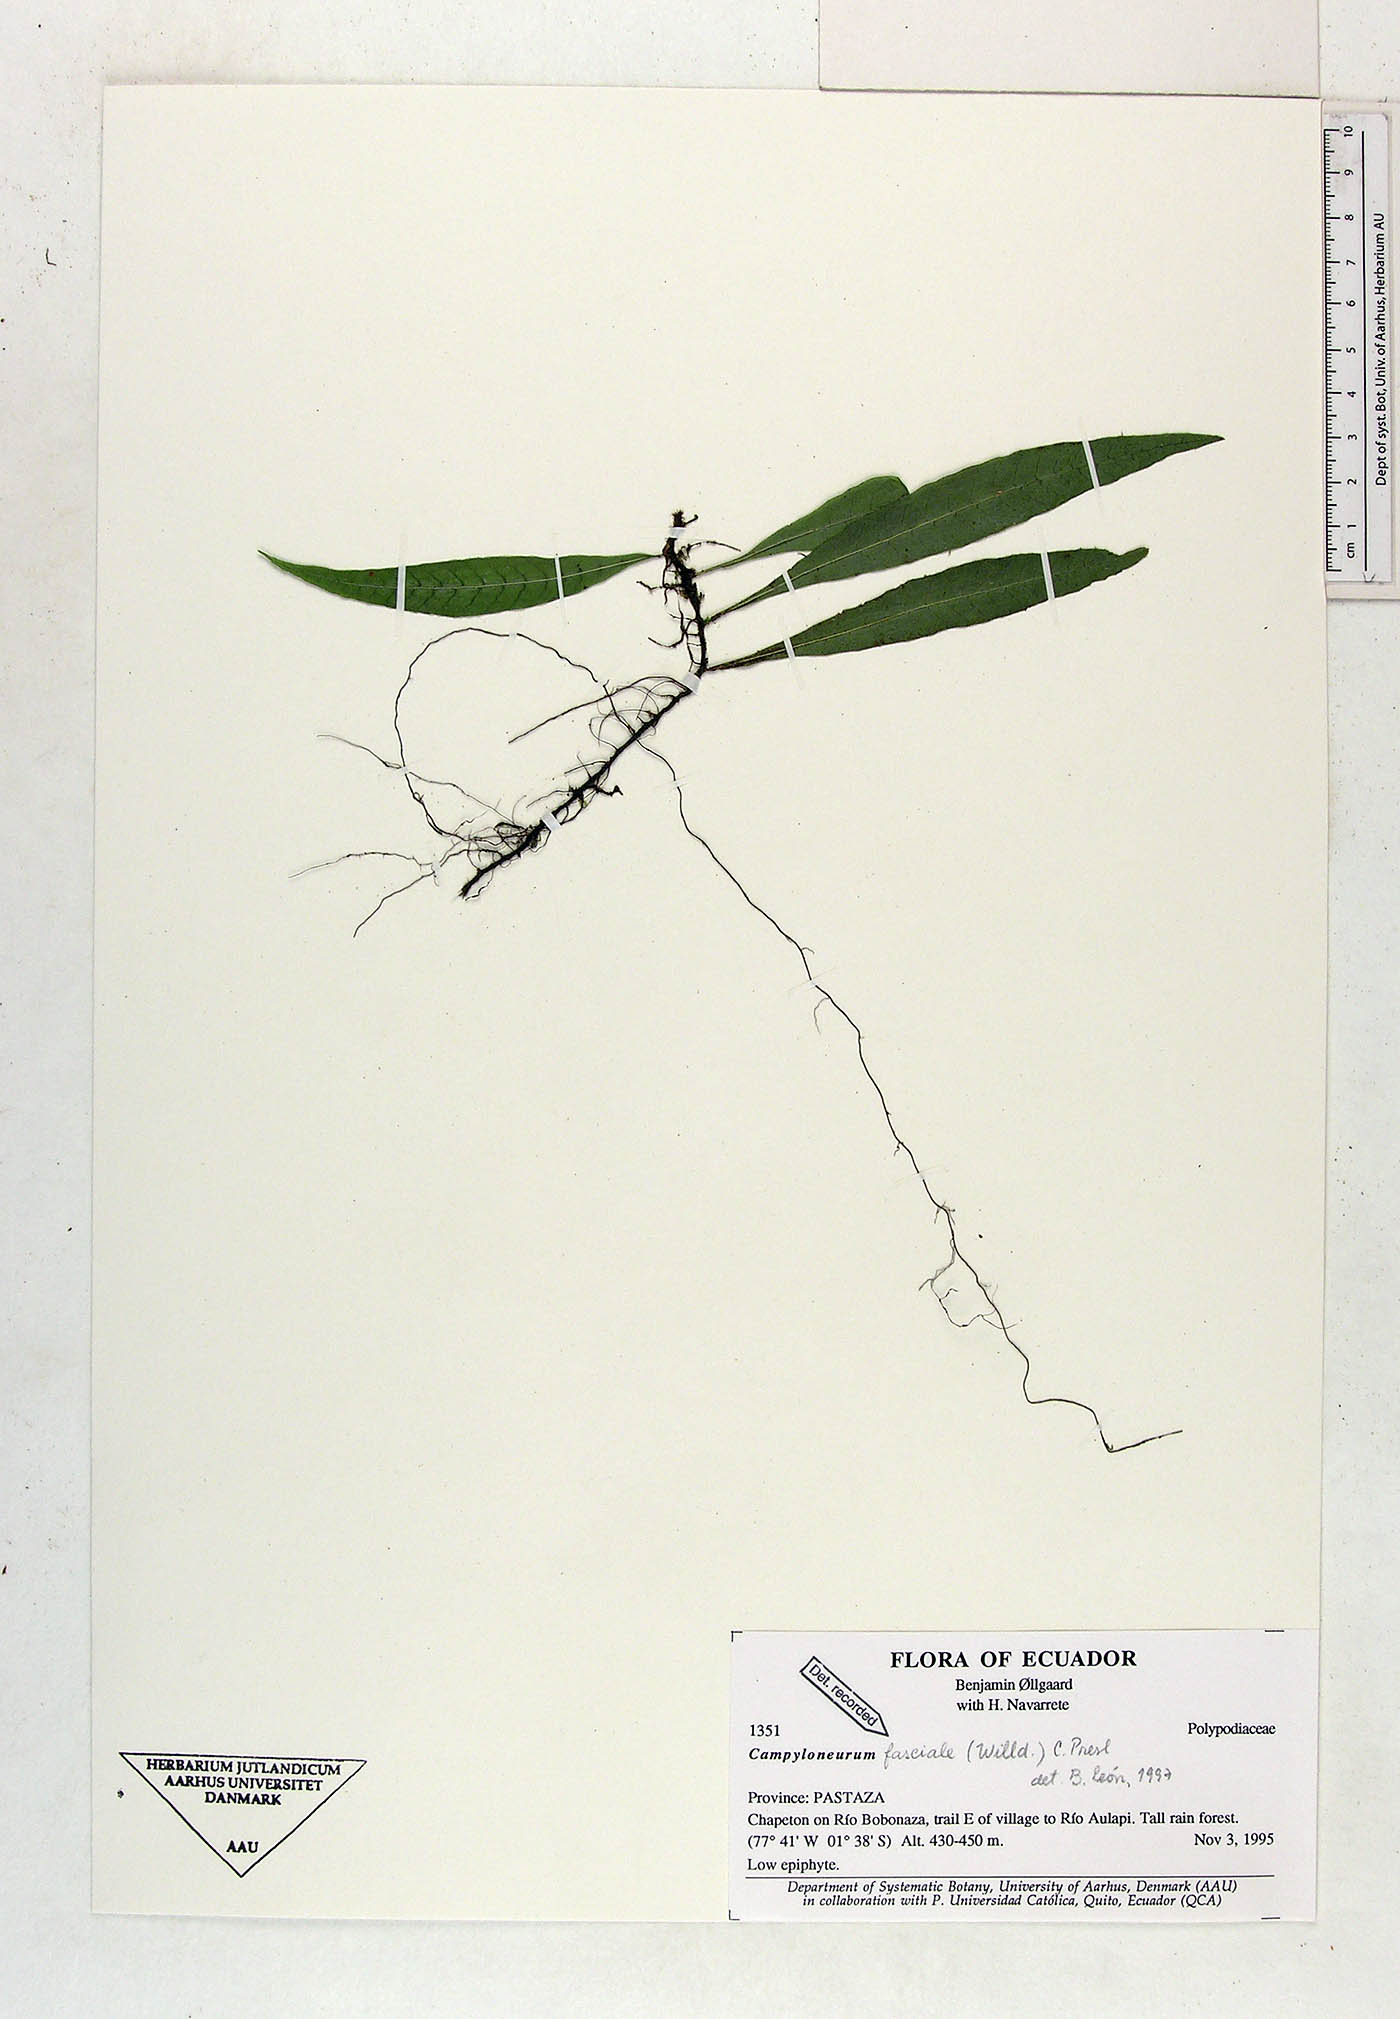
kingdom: Plantae
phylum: Tracheophyta
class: Polypodiopsida
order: Polypodiales
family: Polypodiaceae
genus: Campyloneurum
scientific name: Campyloneurum repens
